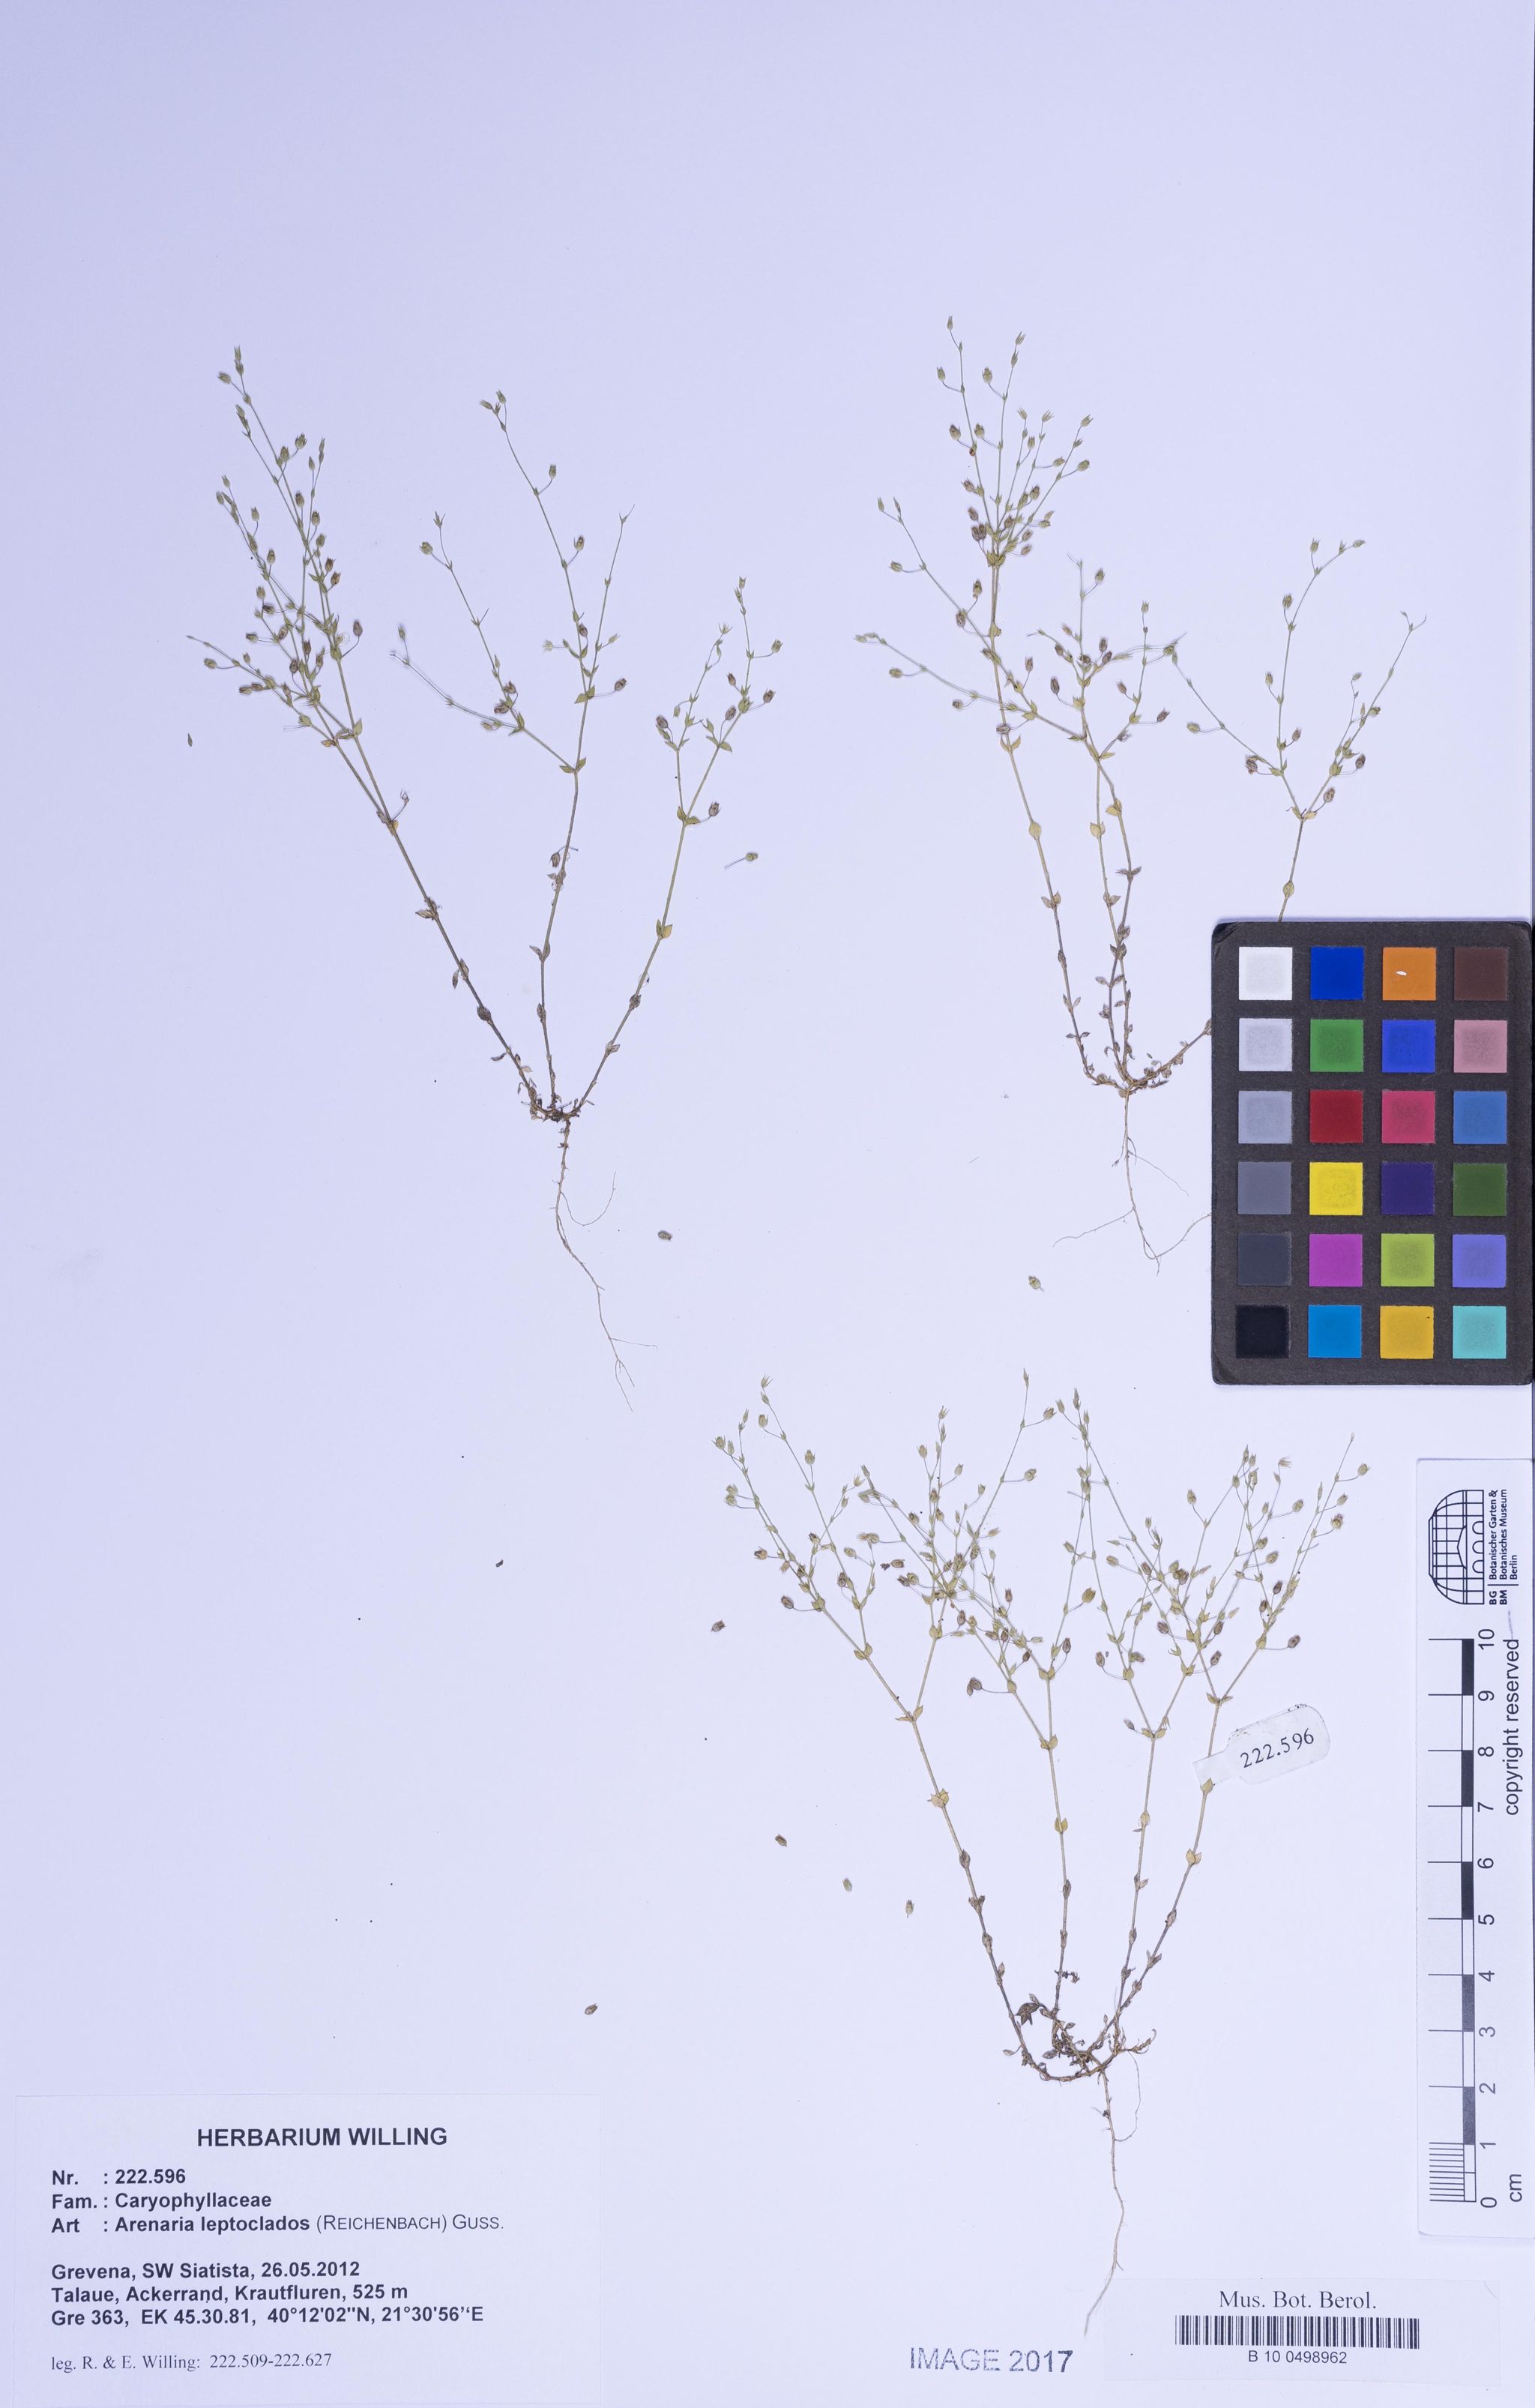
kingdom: Plantae
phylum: Tracheophyta
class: Magnoliopsida
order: Caryophyllales
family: Caryophyllaceae
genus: Arenaria
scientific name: Arenaria leptoclados
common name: Thyme-leaved sandwort
